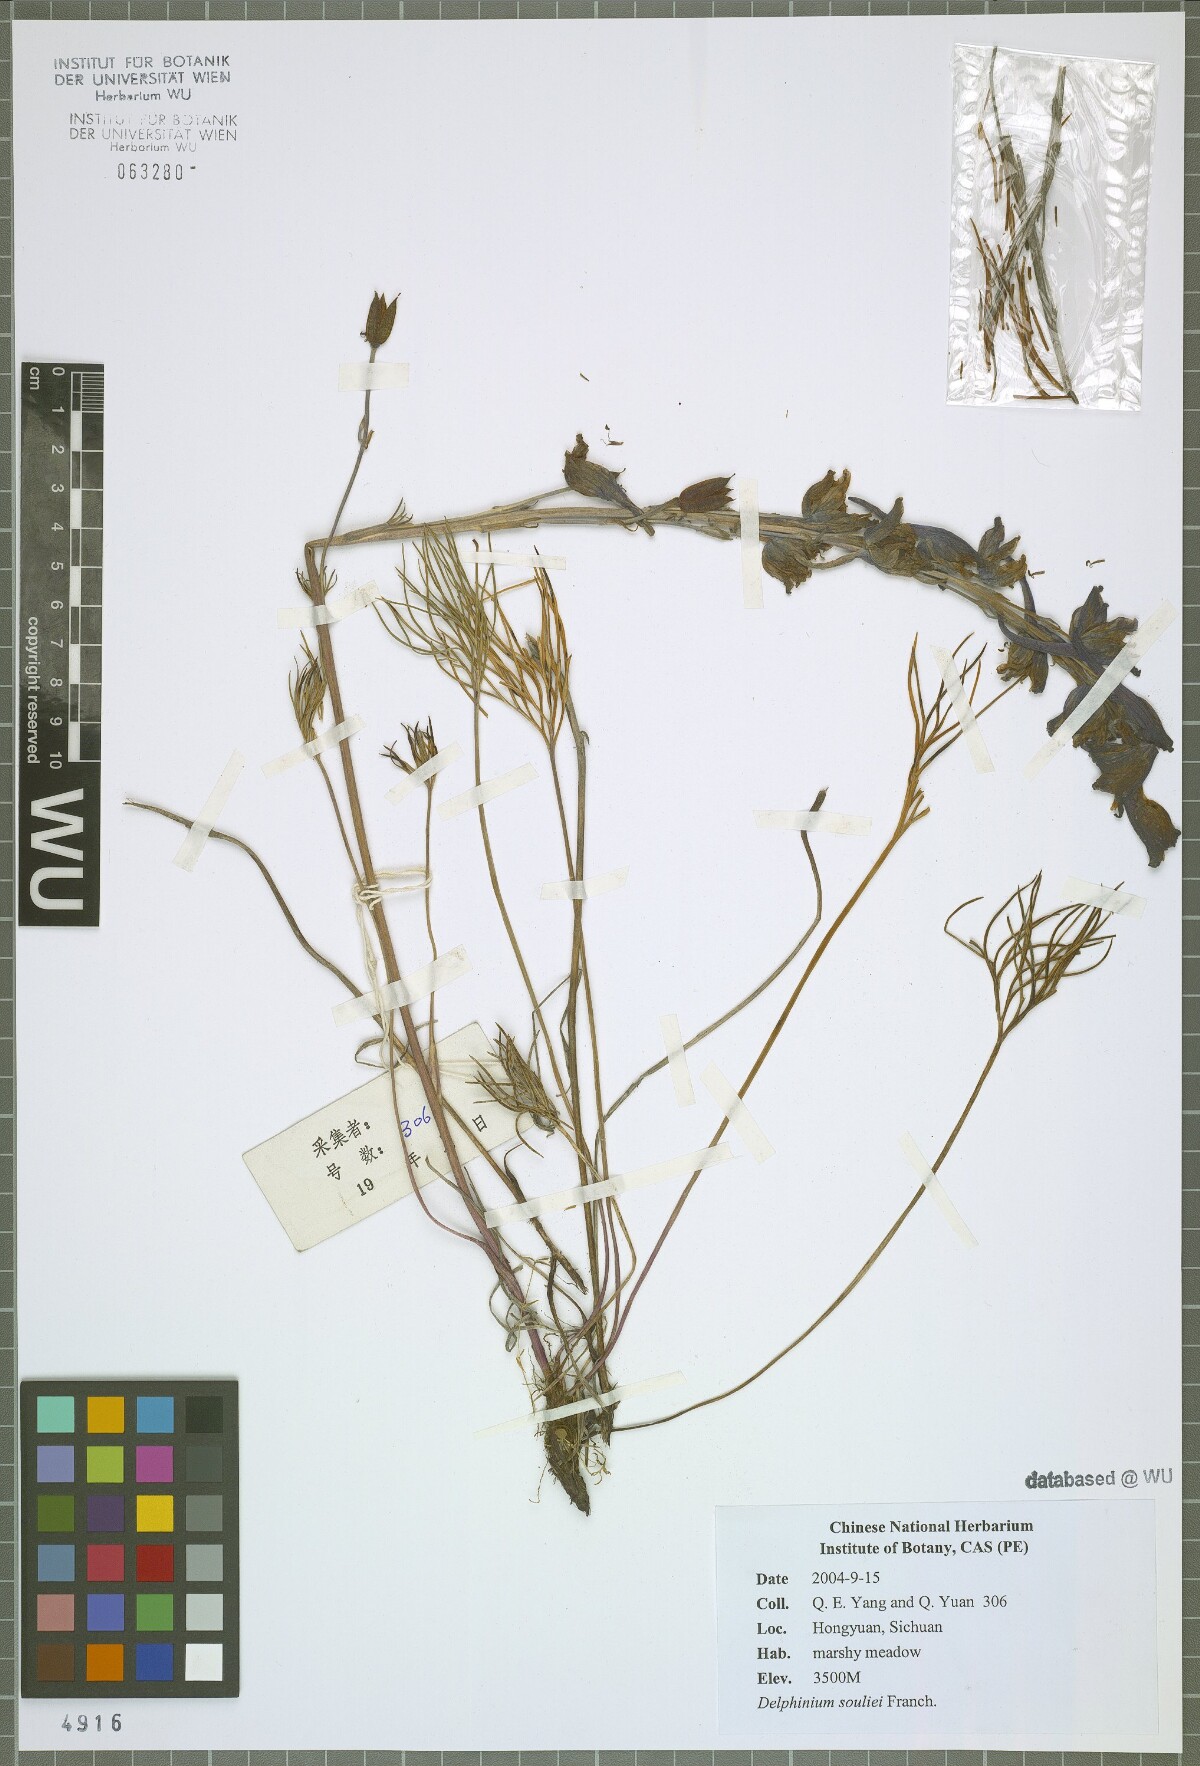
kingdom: Plantae
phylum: Tracheophyta
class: Magnoliopsida
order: Ranunculales
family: Ranunculaceae
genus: Delphinium
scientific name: Delphinium souliei
